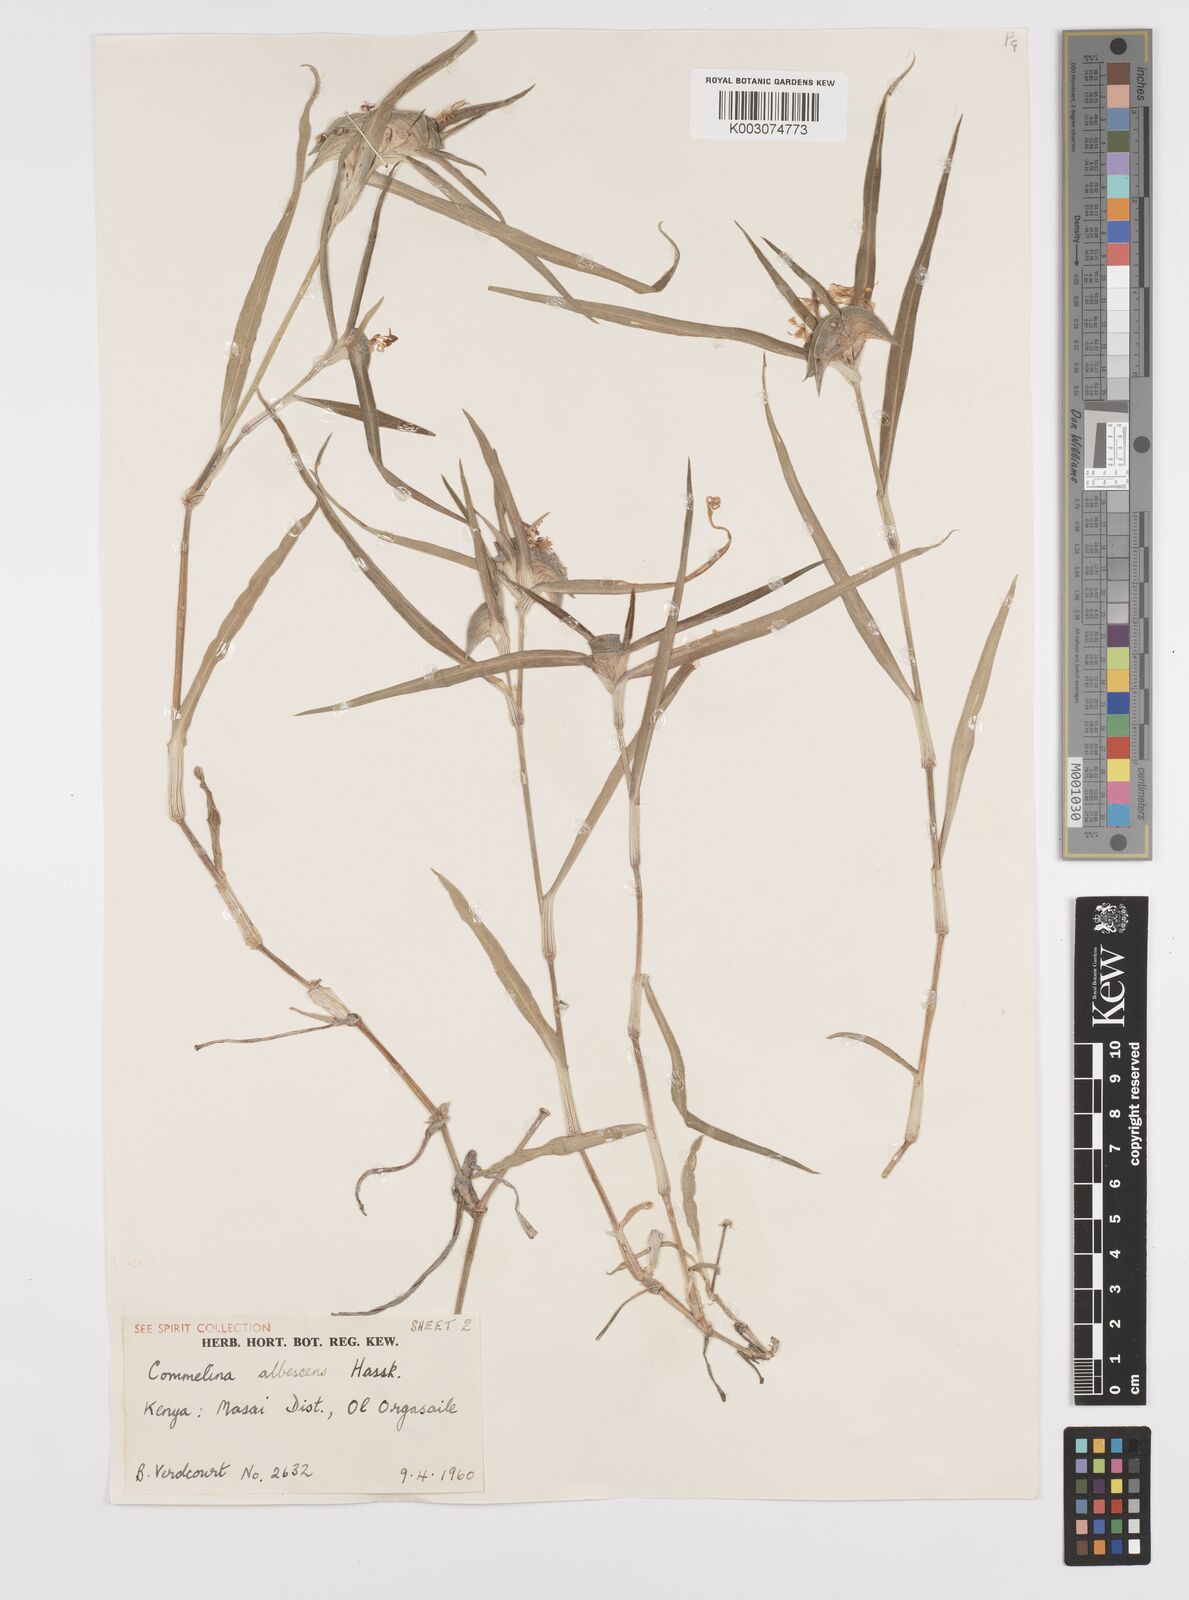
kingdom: Plantae
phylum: Tracheophyta
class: Liliopsida
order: Commelinales
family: Commelinaceae
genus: Commelina
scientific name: Commelina albescens
